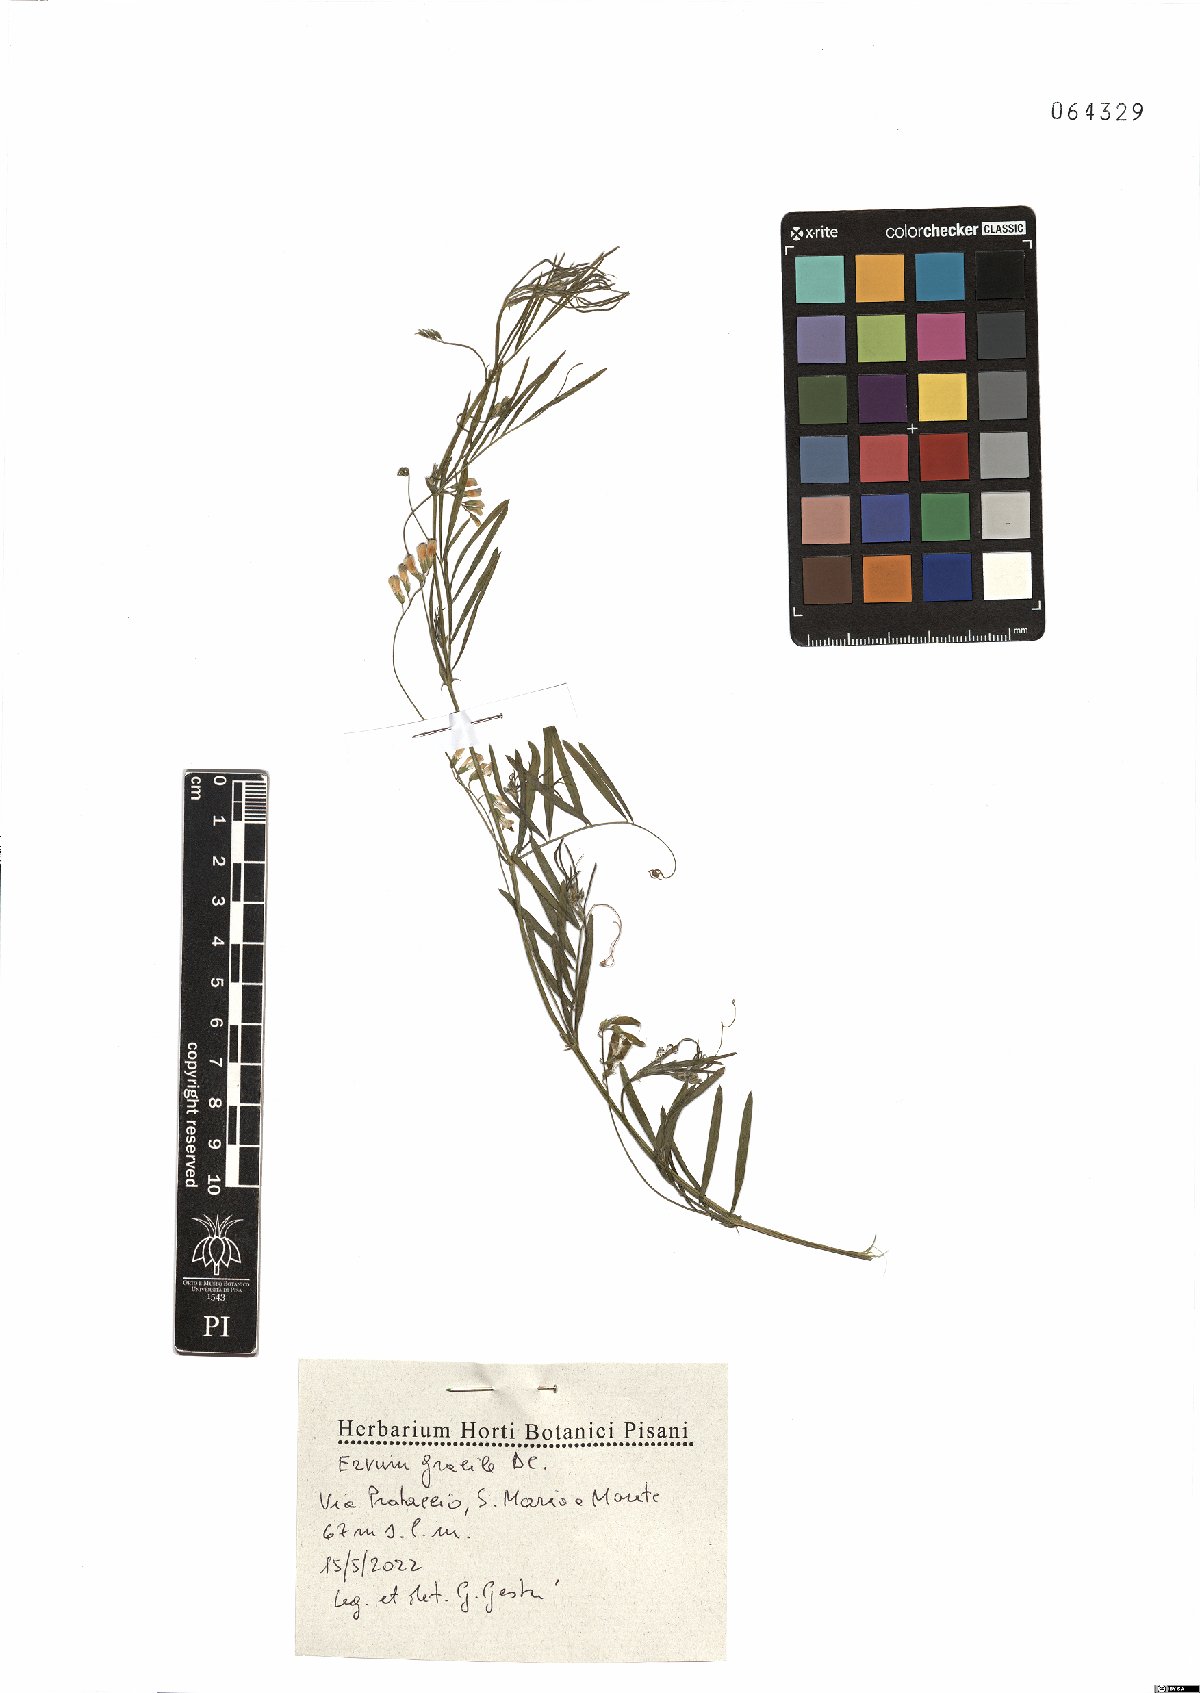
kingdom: Plantae
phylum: Tracheophyta
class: Magnoliopsida
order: Fabales
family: Fabaceae
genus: Vicia
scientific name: Vicia parviflora
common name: Slender tare
